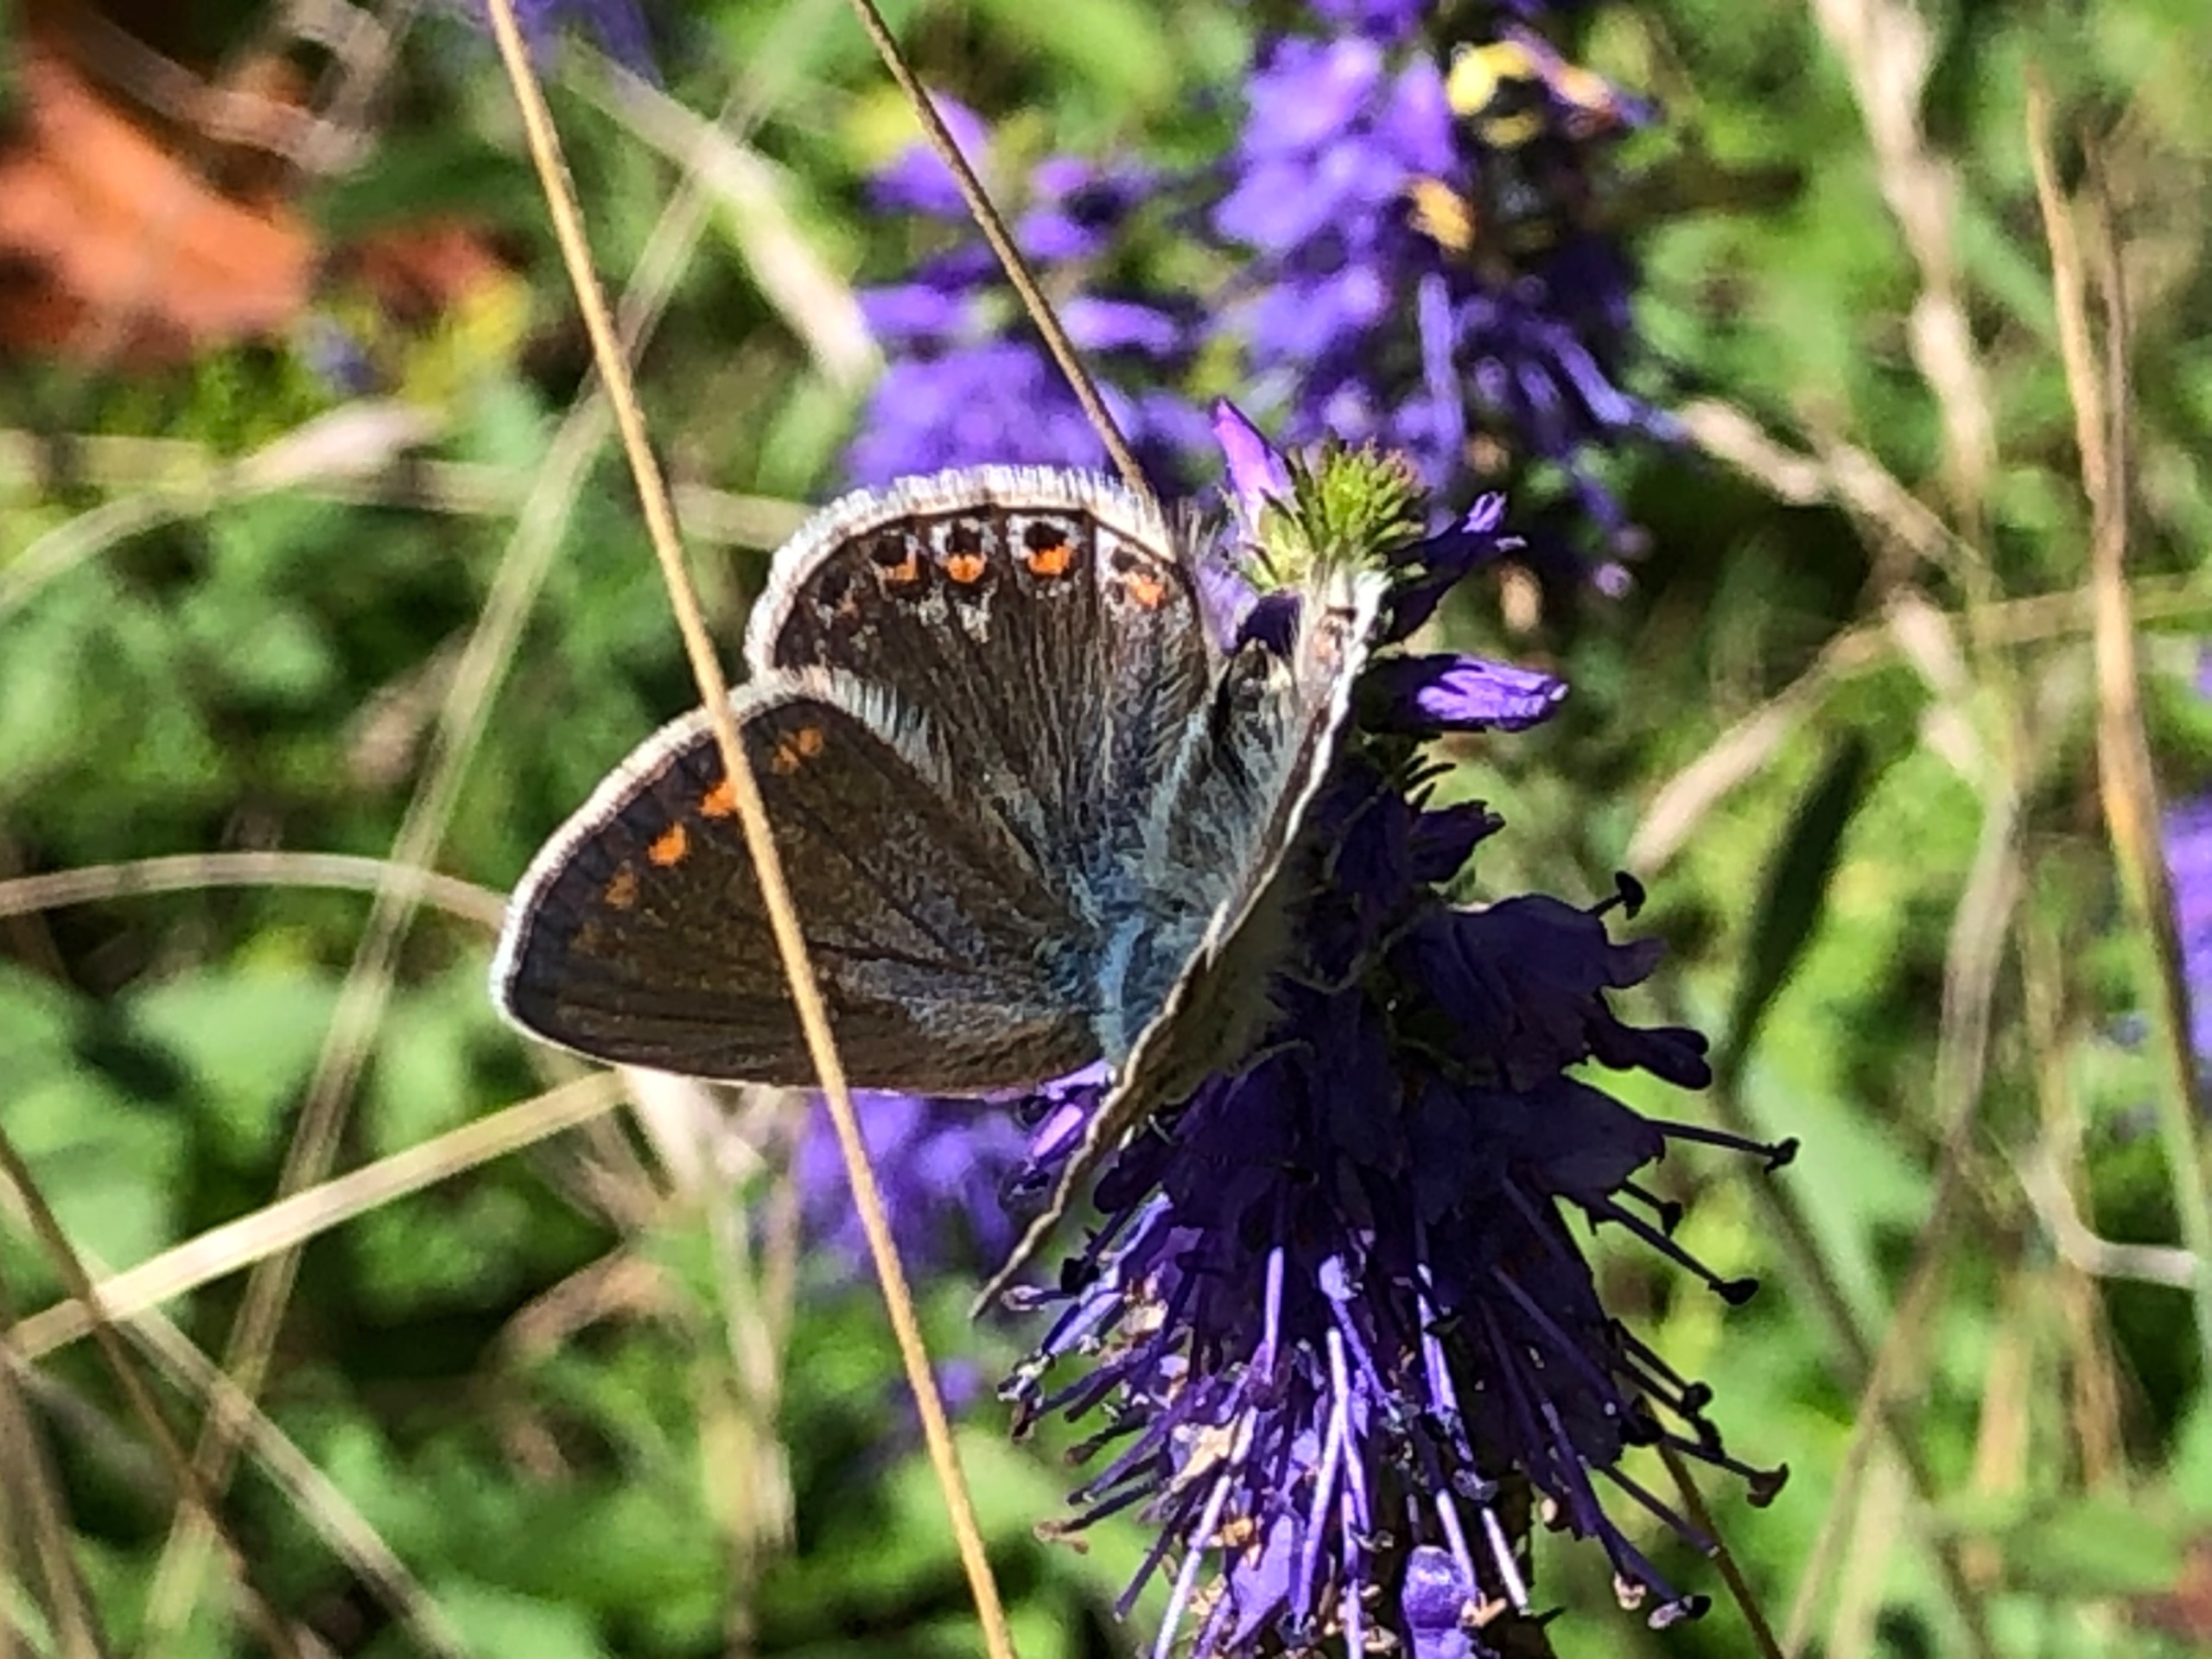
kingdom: Animalia
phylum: Arthropoda
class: Insecta
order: Lepidoptera
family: Lycaenidae
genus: Polyommatus
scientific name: Polyommatus icarus
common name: Almindelig blåfugl
